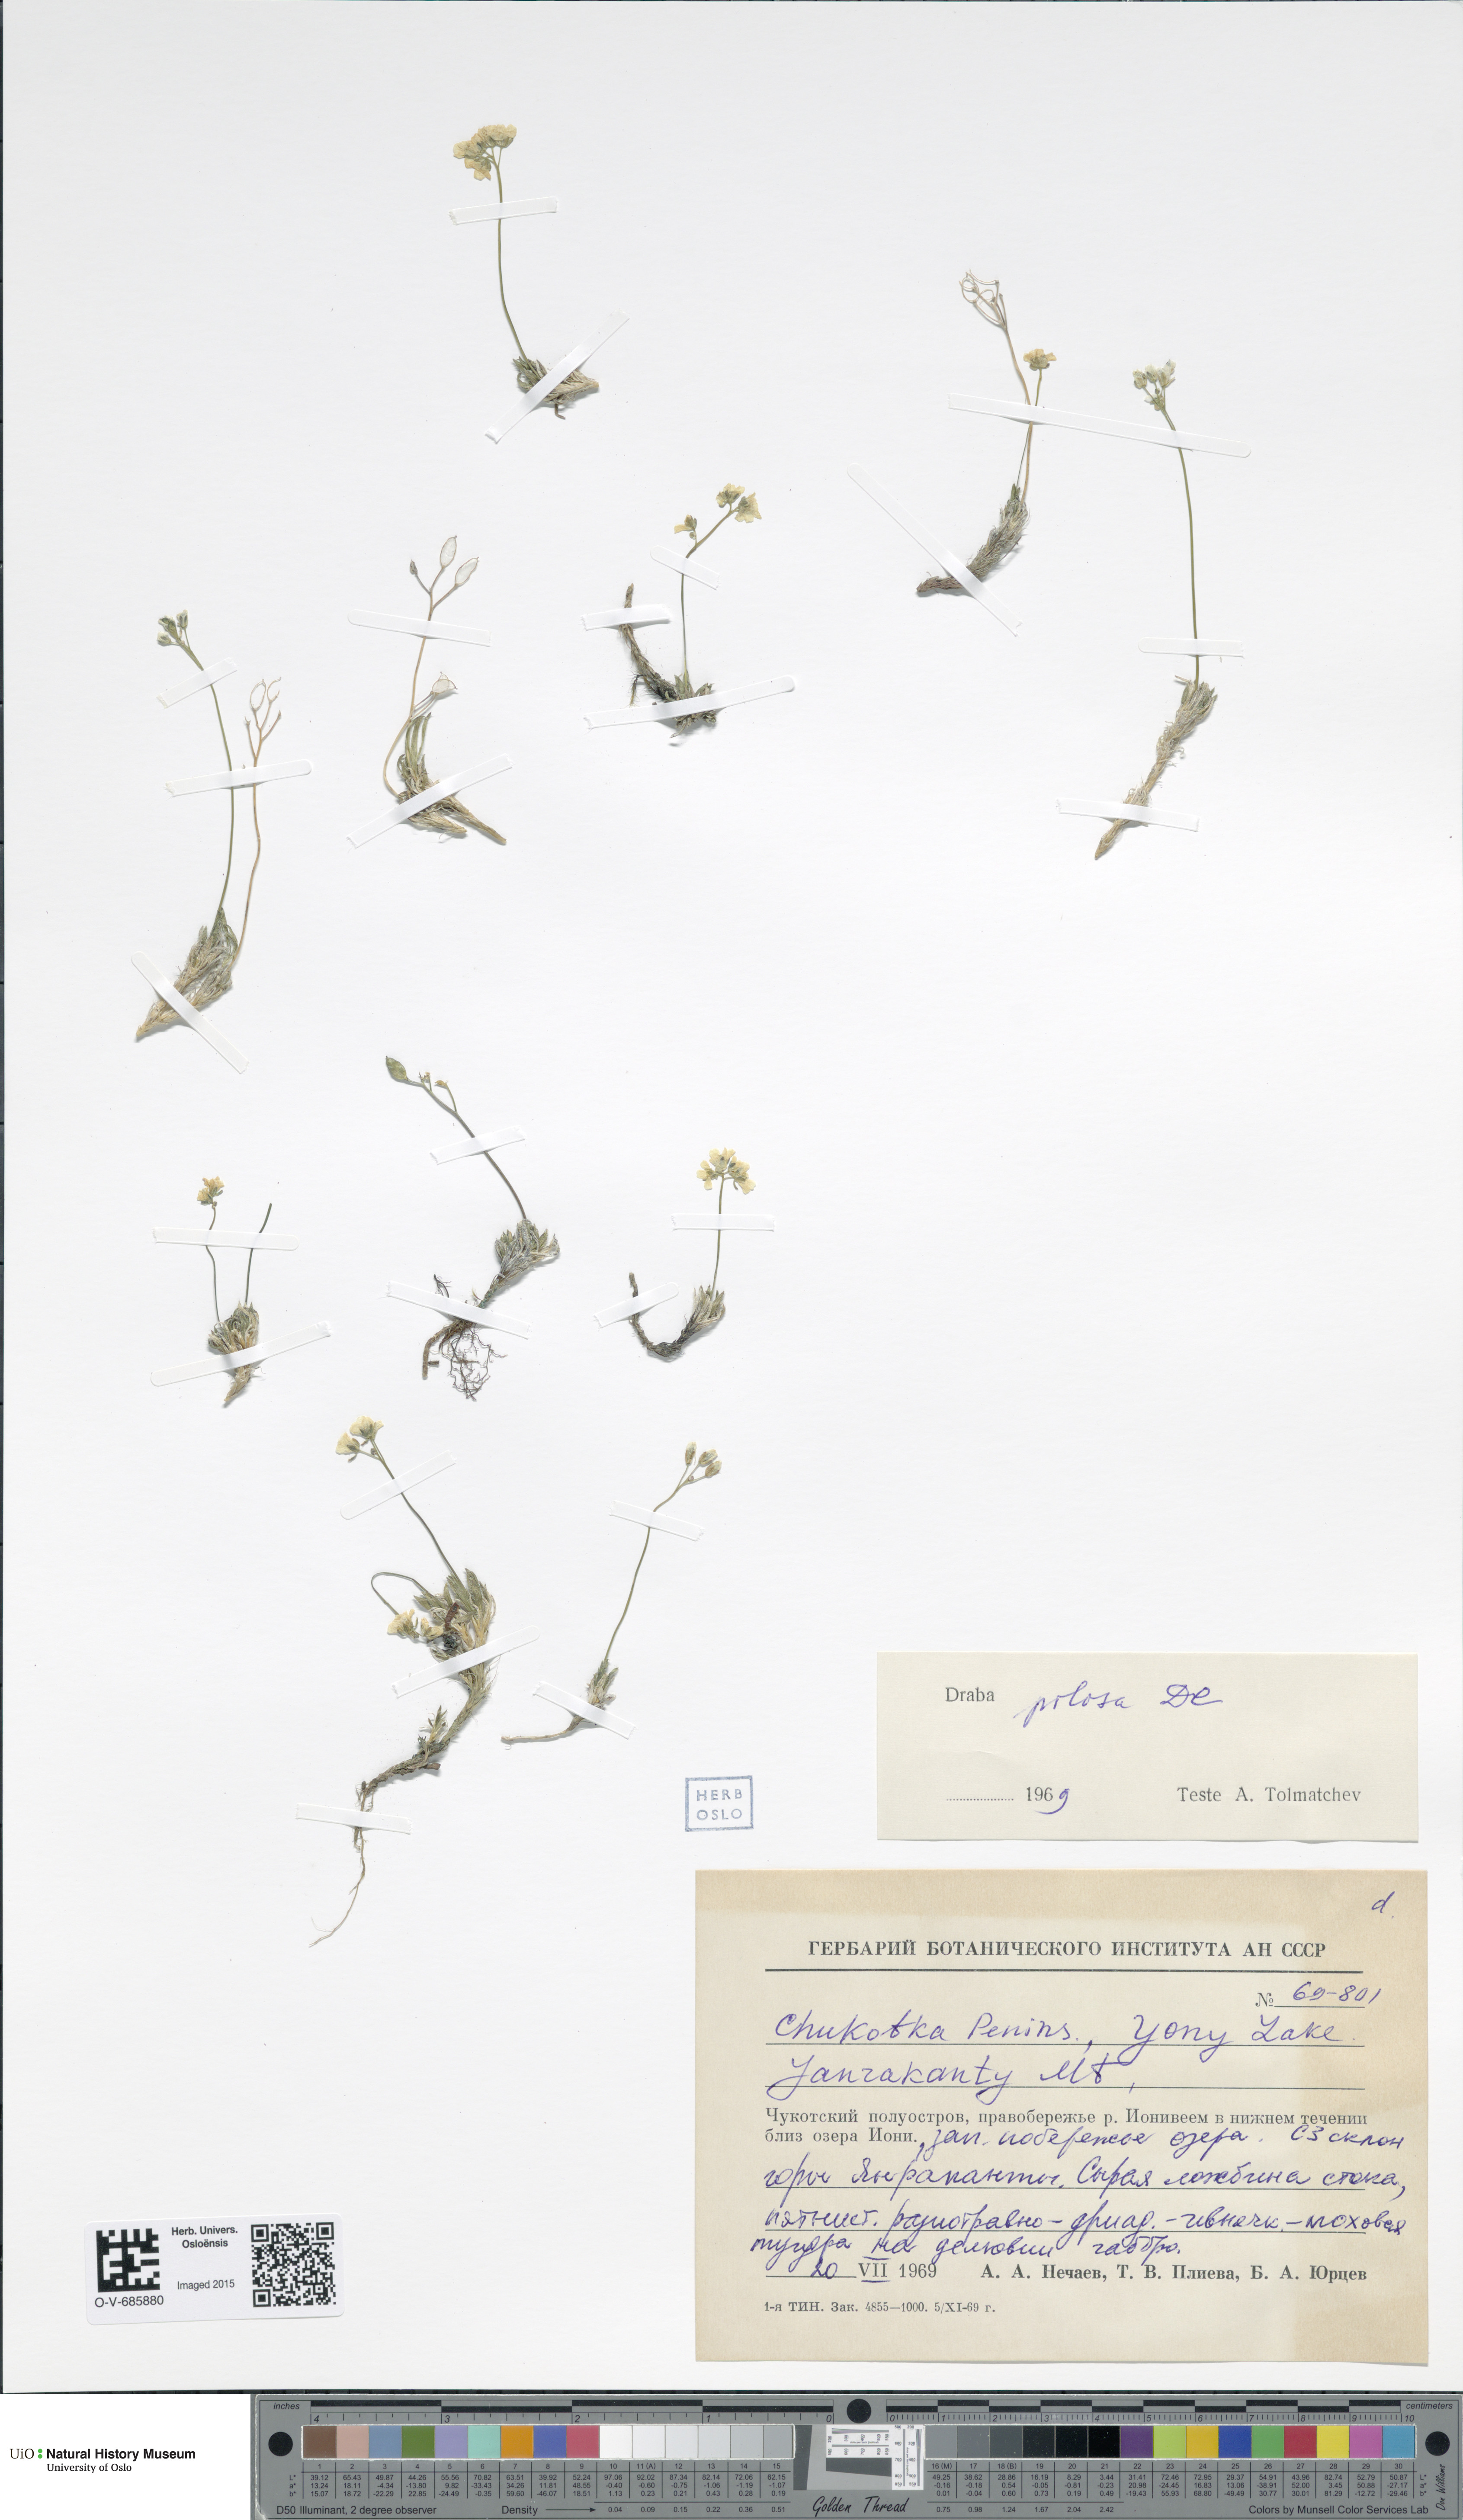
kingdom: Plantae
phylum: Tracheophyta
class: Magnoliopsida
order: Brassicales
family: Brassicaceae
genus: Draba
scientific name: Draba pilosa
